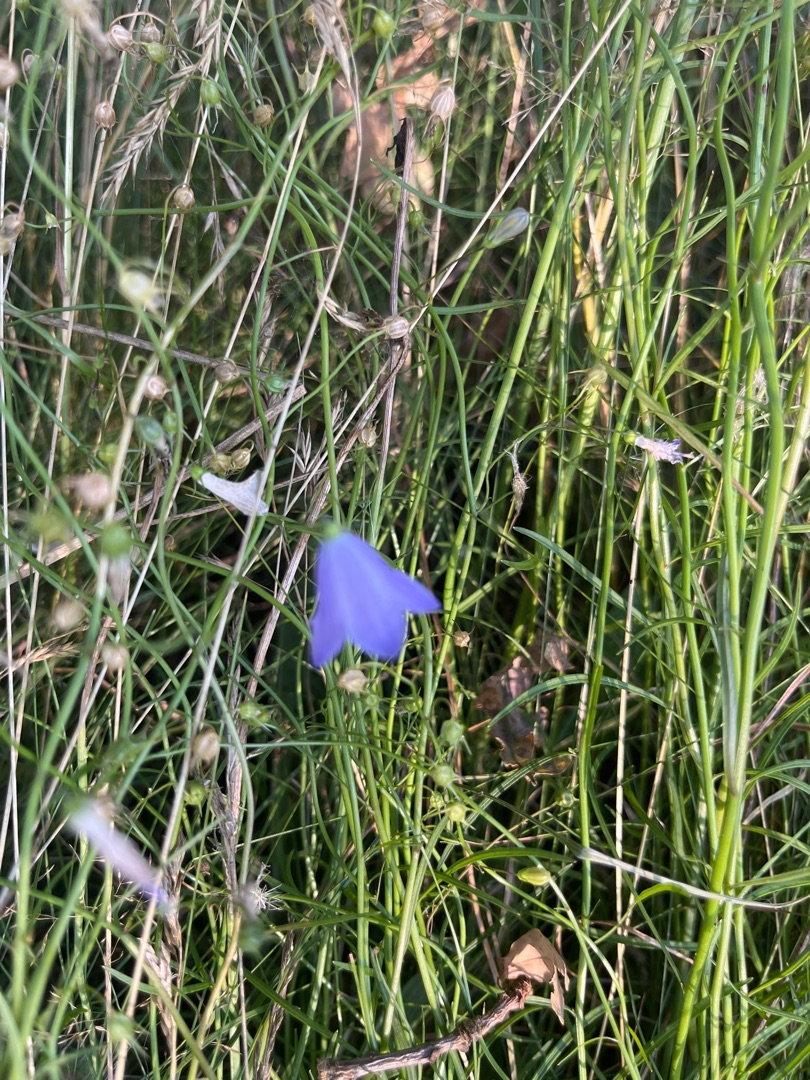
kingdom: Plantae
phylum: Tracheophyta
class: Magnoliopsida
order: Asterales
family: Campanulaceae
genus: Campanula
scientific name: Campanula rotundifolia
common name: Liden klokke
